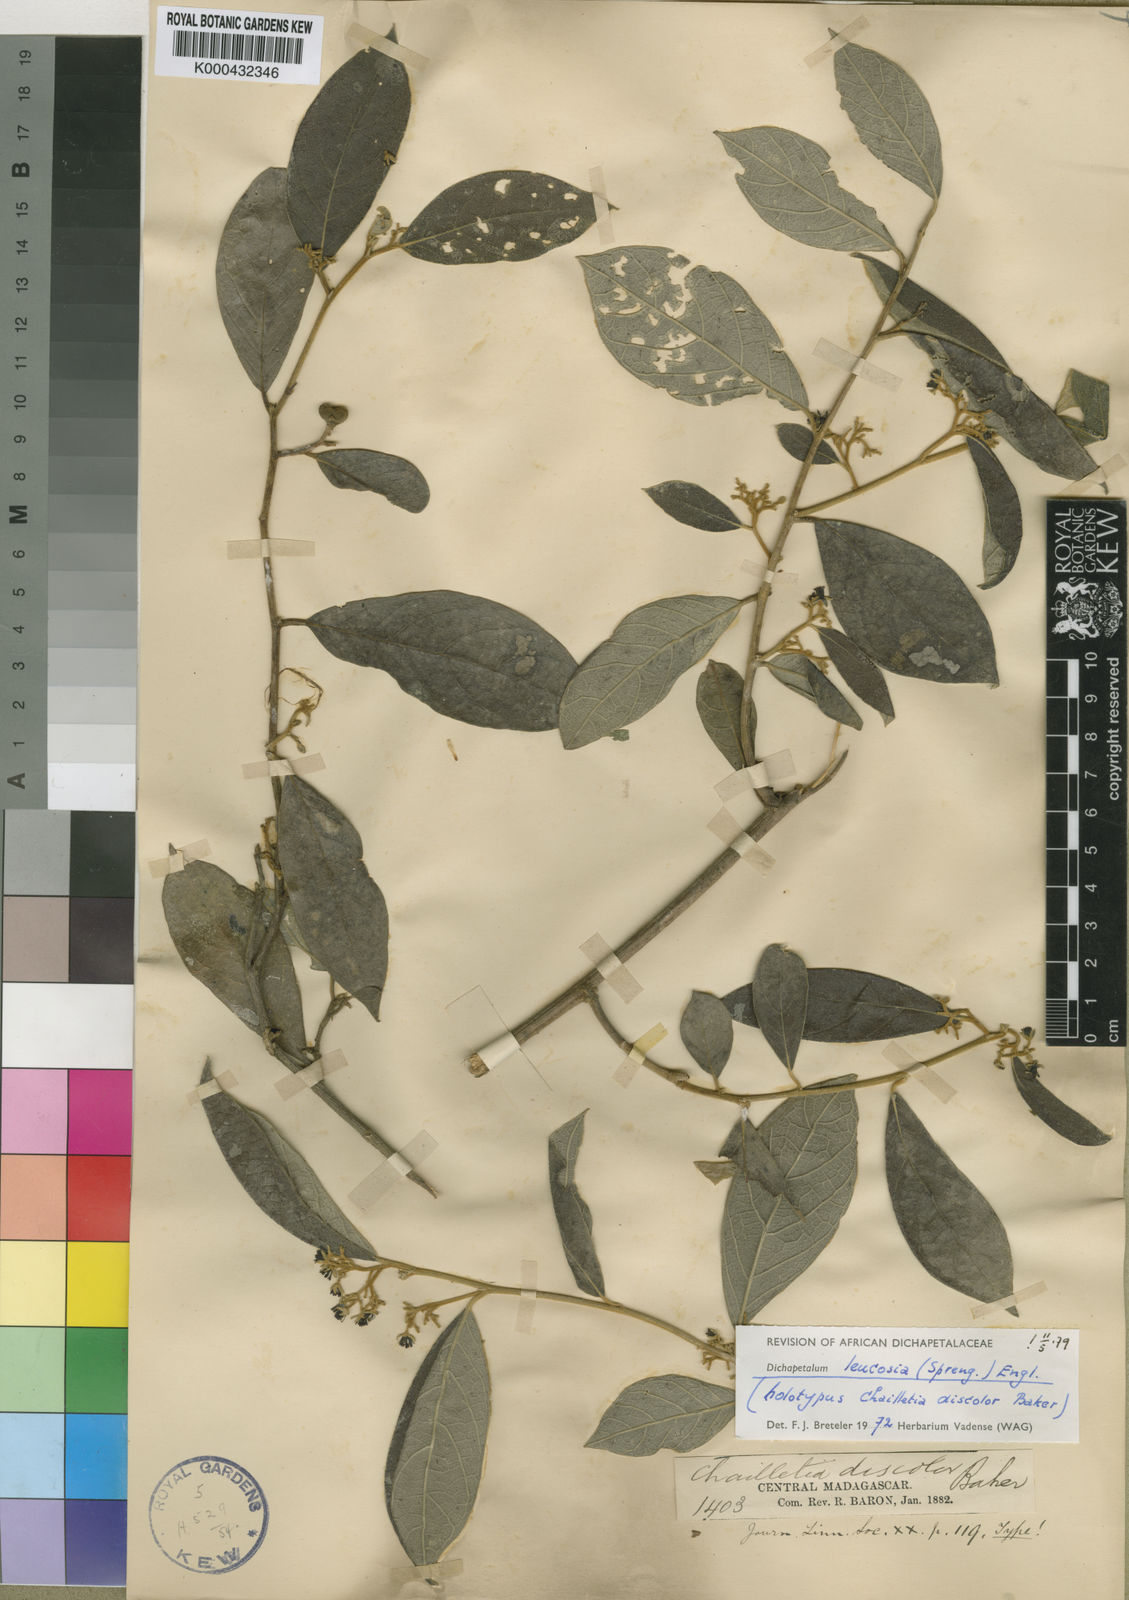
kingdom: Plantae
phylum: Tracheophyta
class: Magnoliopsida
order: Malpighiales
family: Dichapetalaceae
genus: Dichapetalum
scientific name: Dichapetalum leucosia
